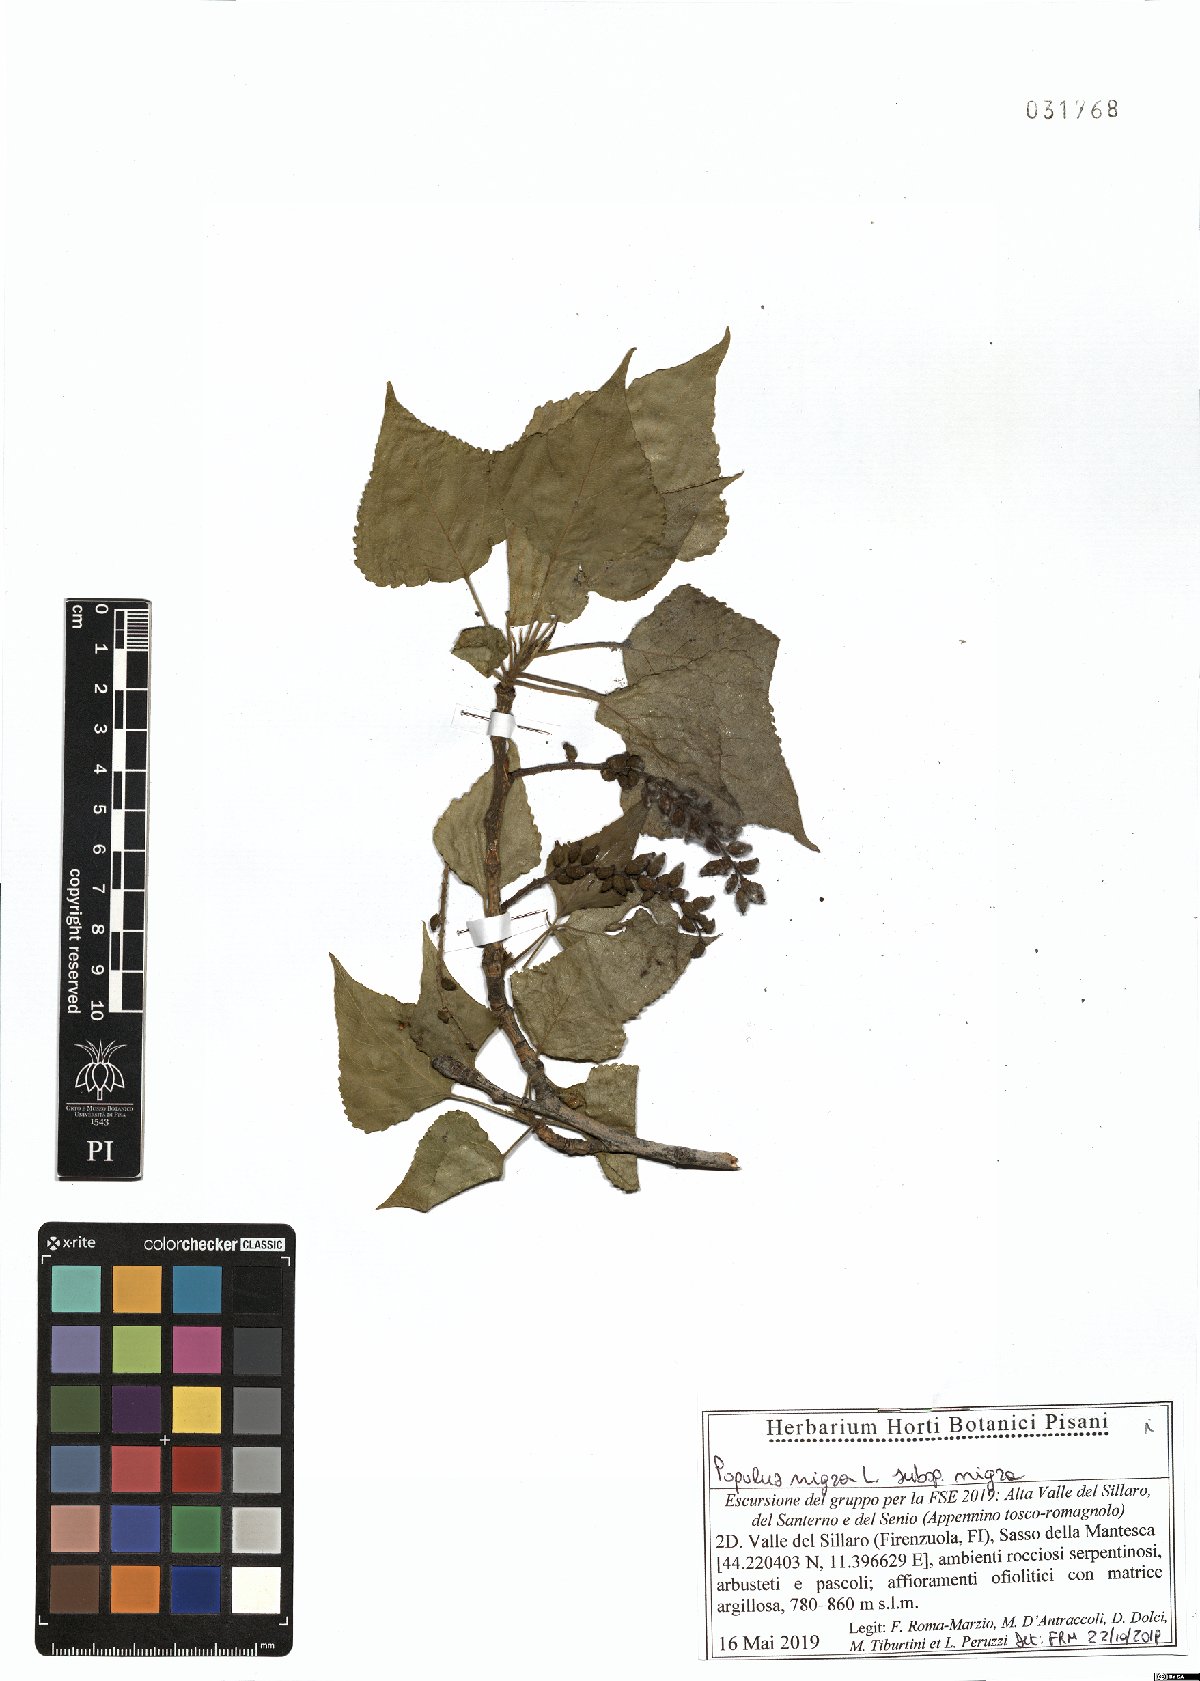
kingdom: Plantae
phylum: Tracheophyta
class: Magnoliopsida
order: Malpighiales
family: Salicaceae
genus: Populus
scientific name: Populus nigra
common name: Black poplar
